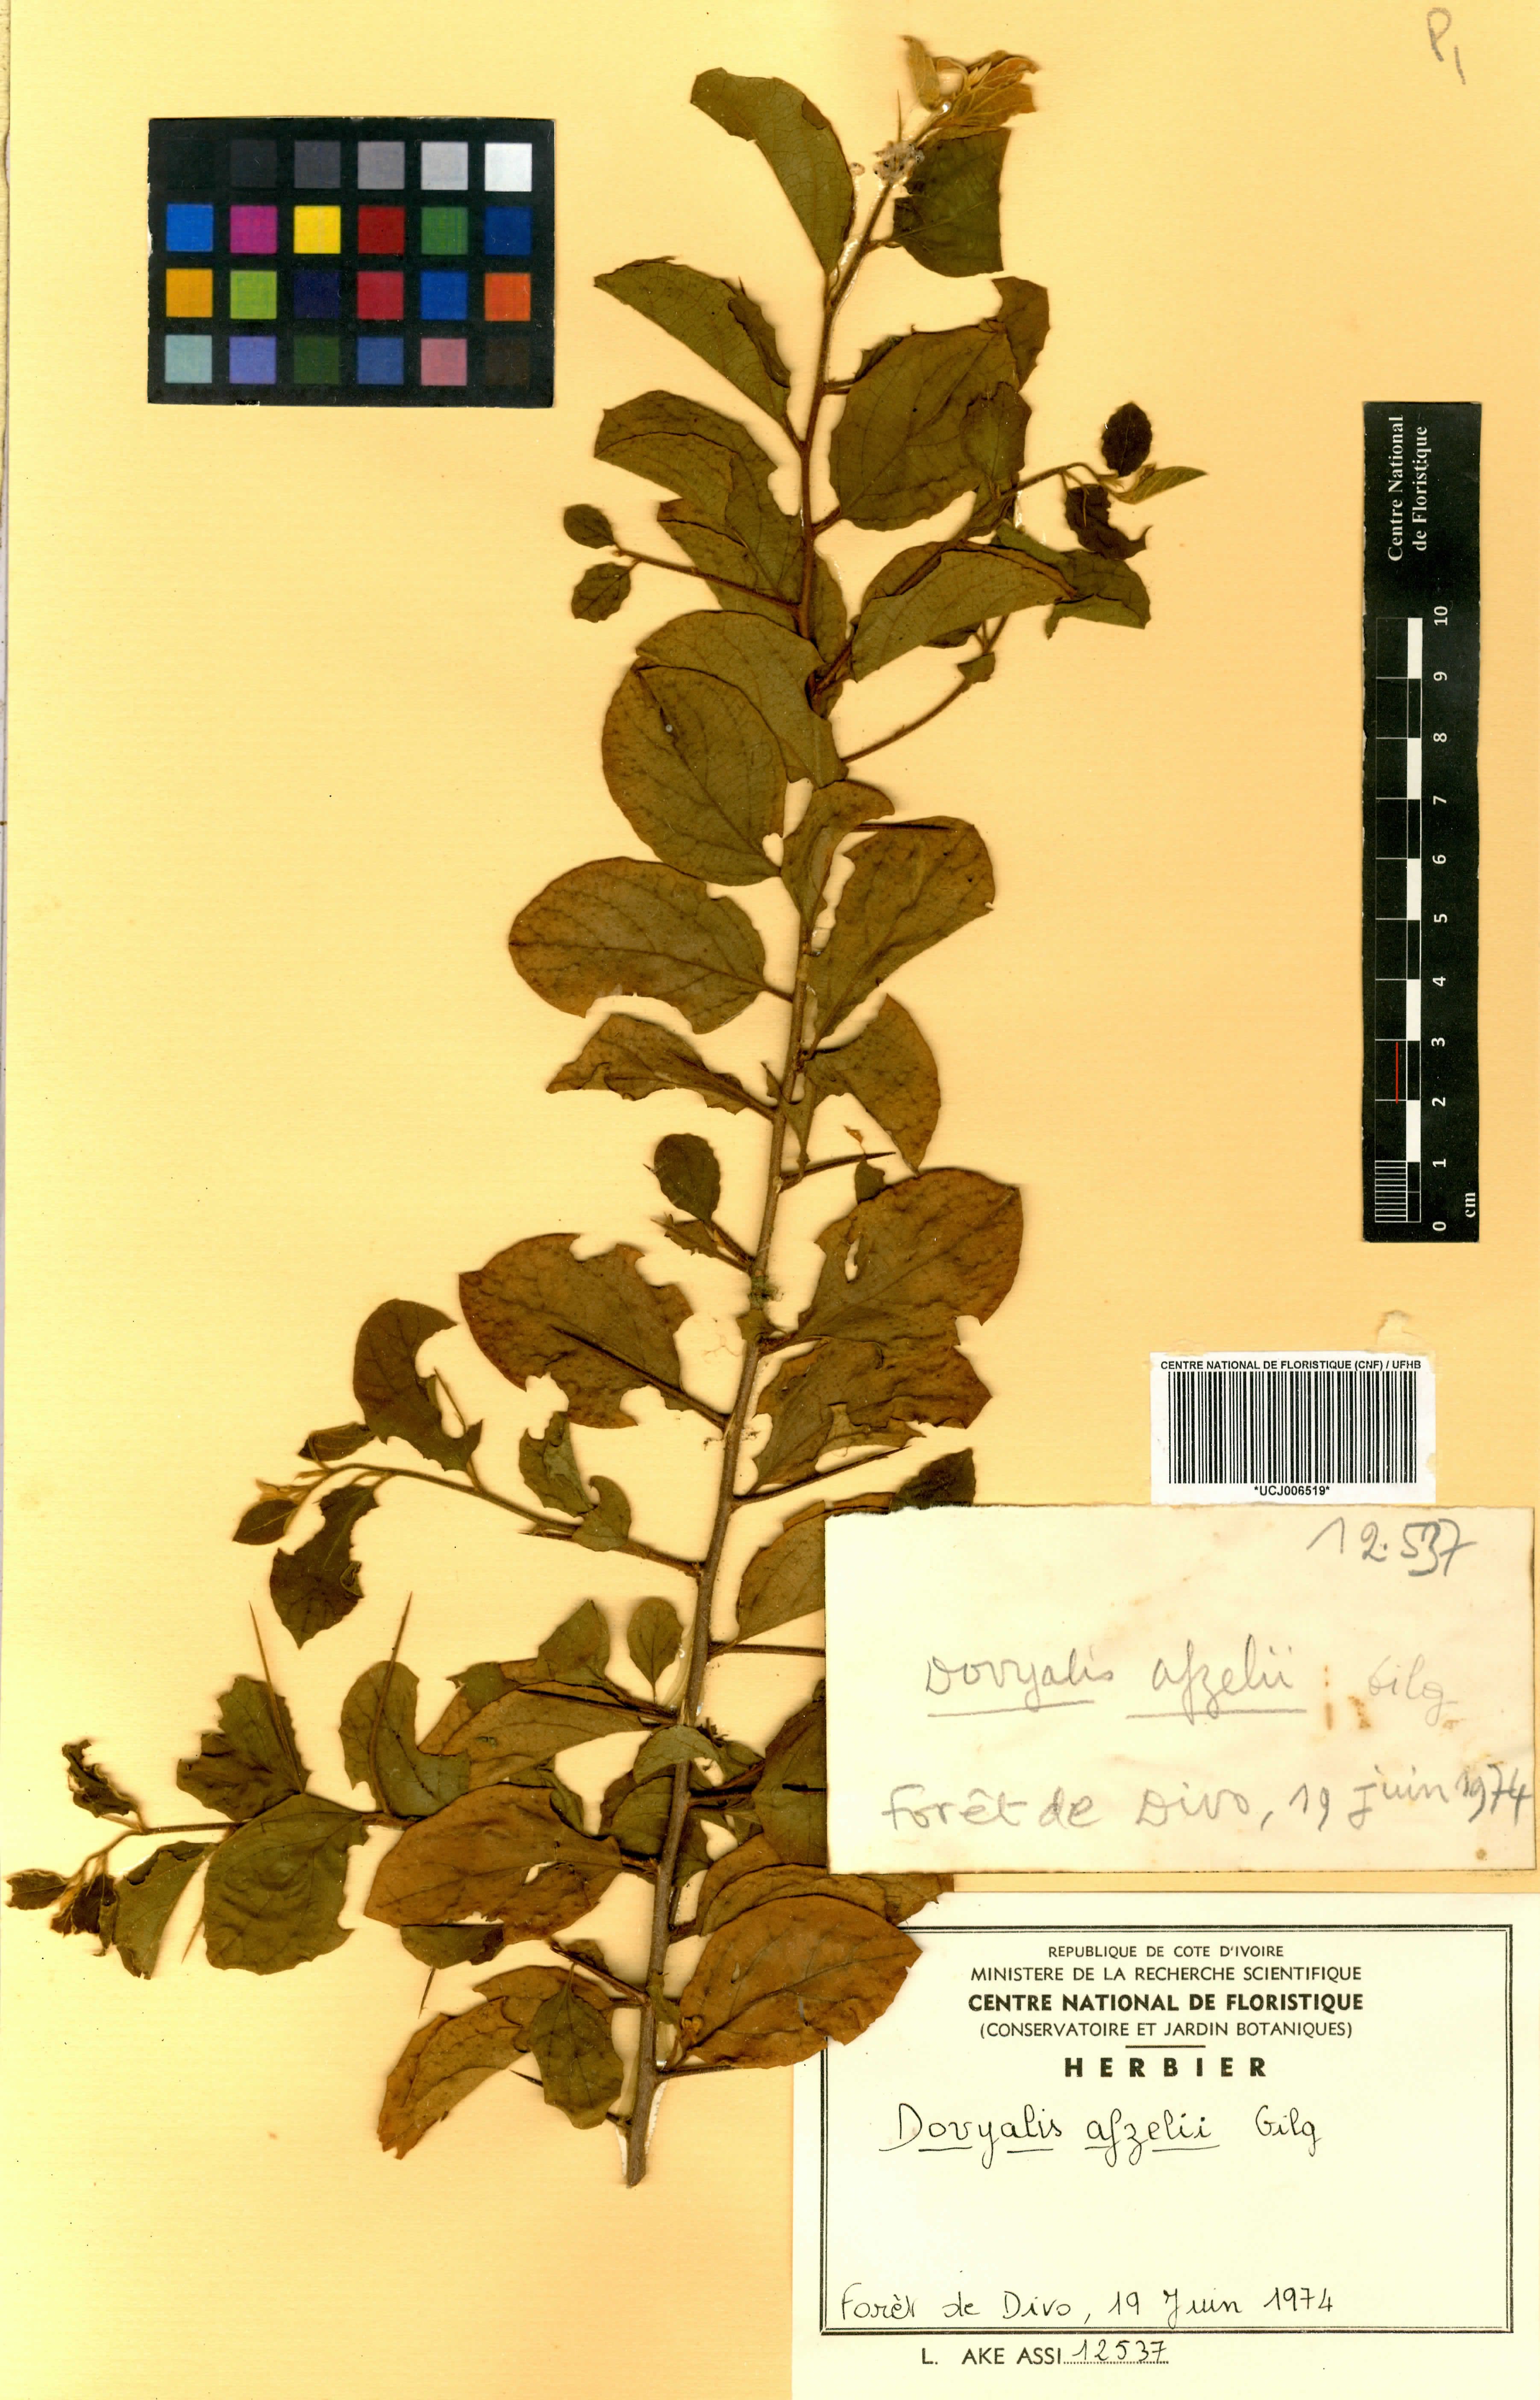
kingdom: Plantae
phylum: Tracheophyta
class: Magnoliopsida
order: Malpighiales
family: Salicaceae
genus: Dovyalis
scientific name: Dovyalis zenkeri
